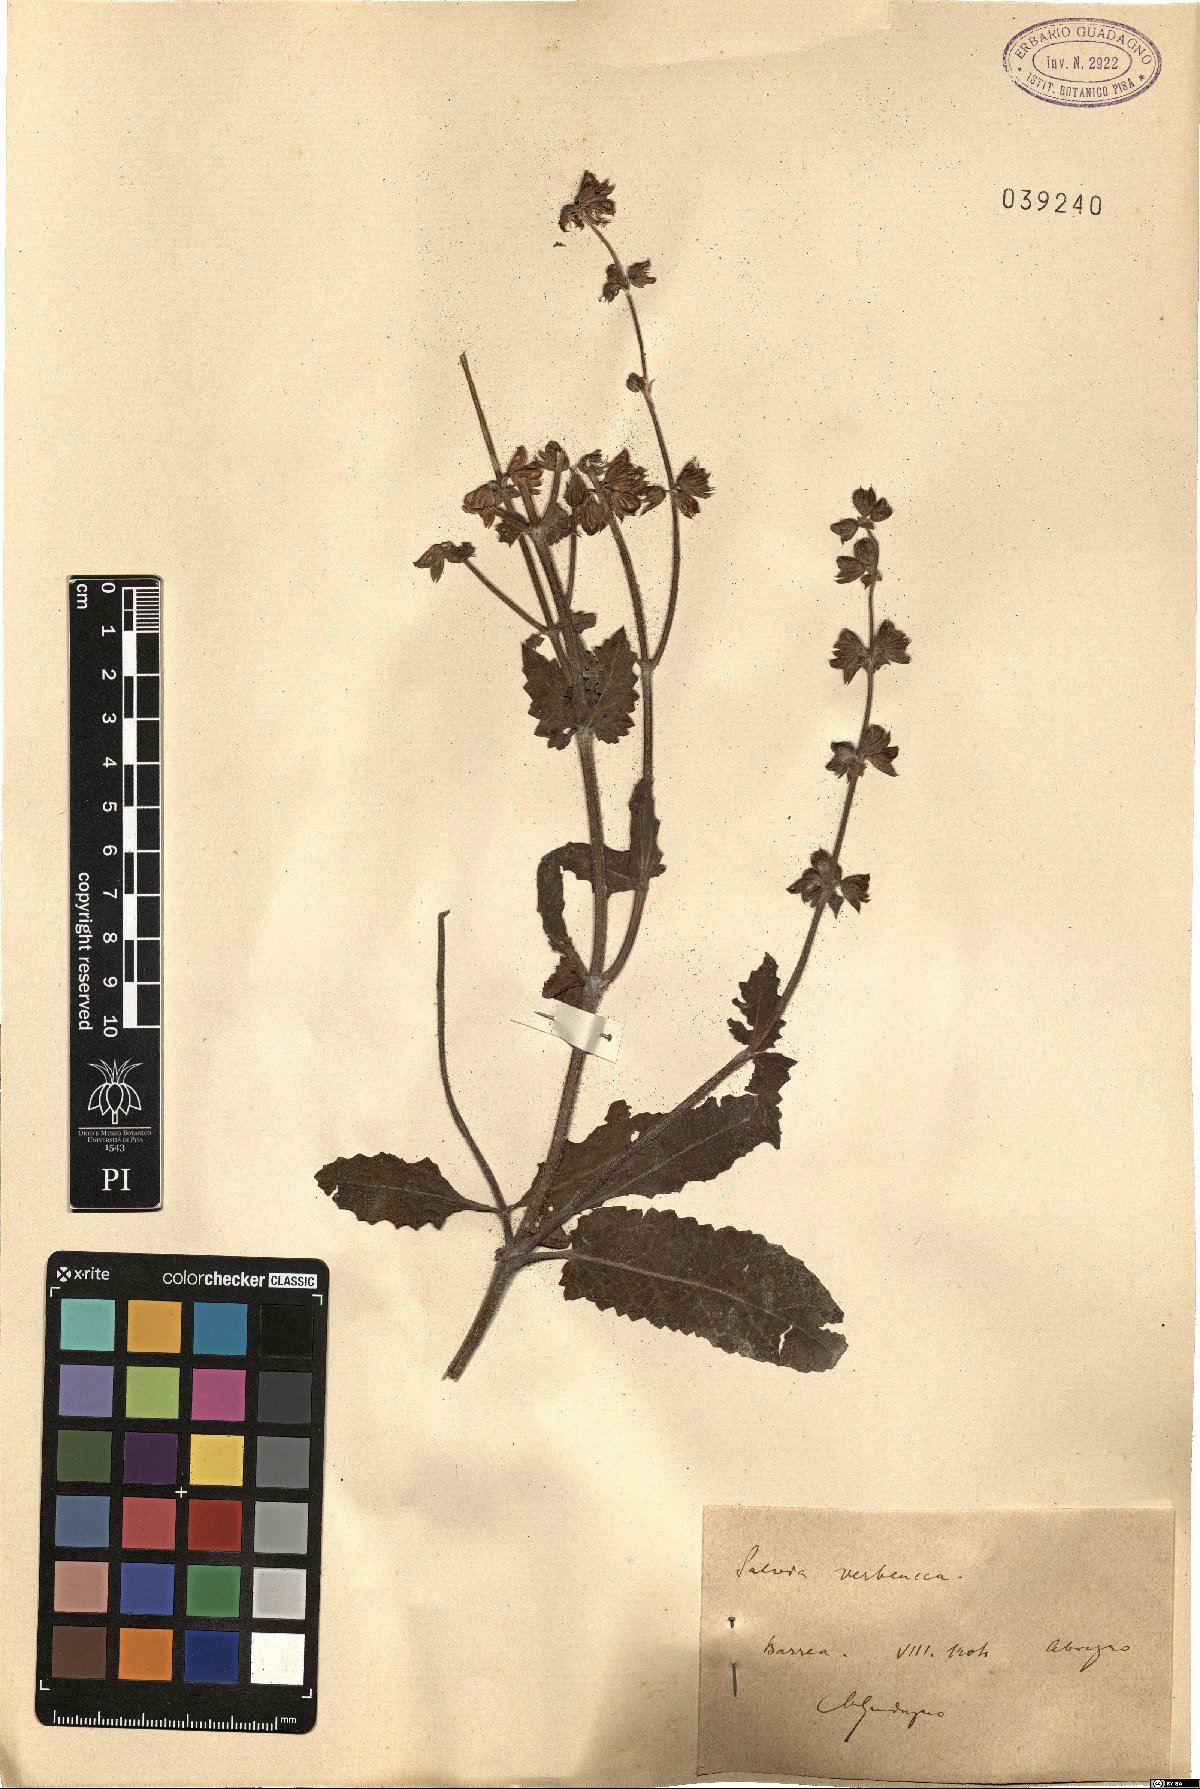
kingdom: Plantae
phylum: Tracheophyta
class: Magnoliopsida
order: Lamiales
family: Lamiaceae
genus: Salvia
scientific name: Salvia verbenaca
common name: Wild clary
